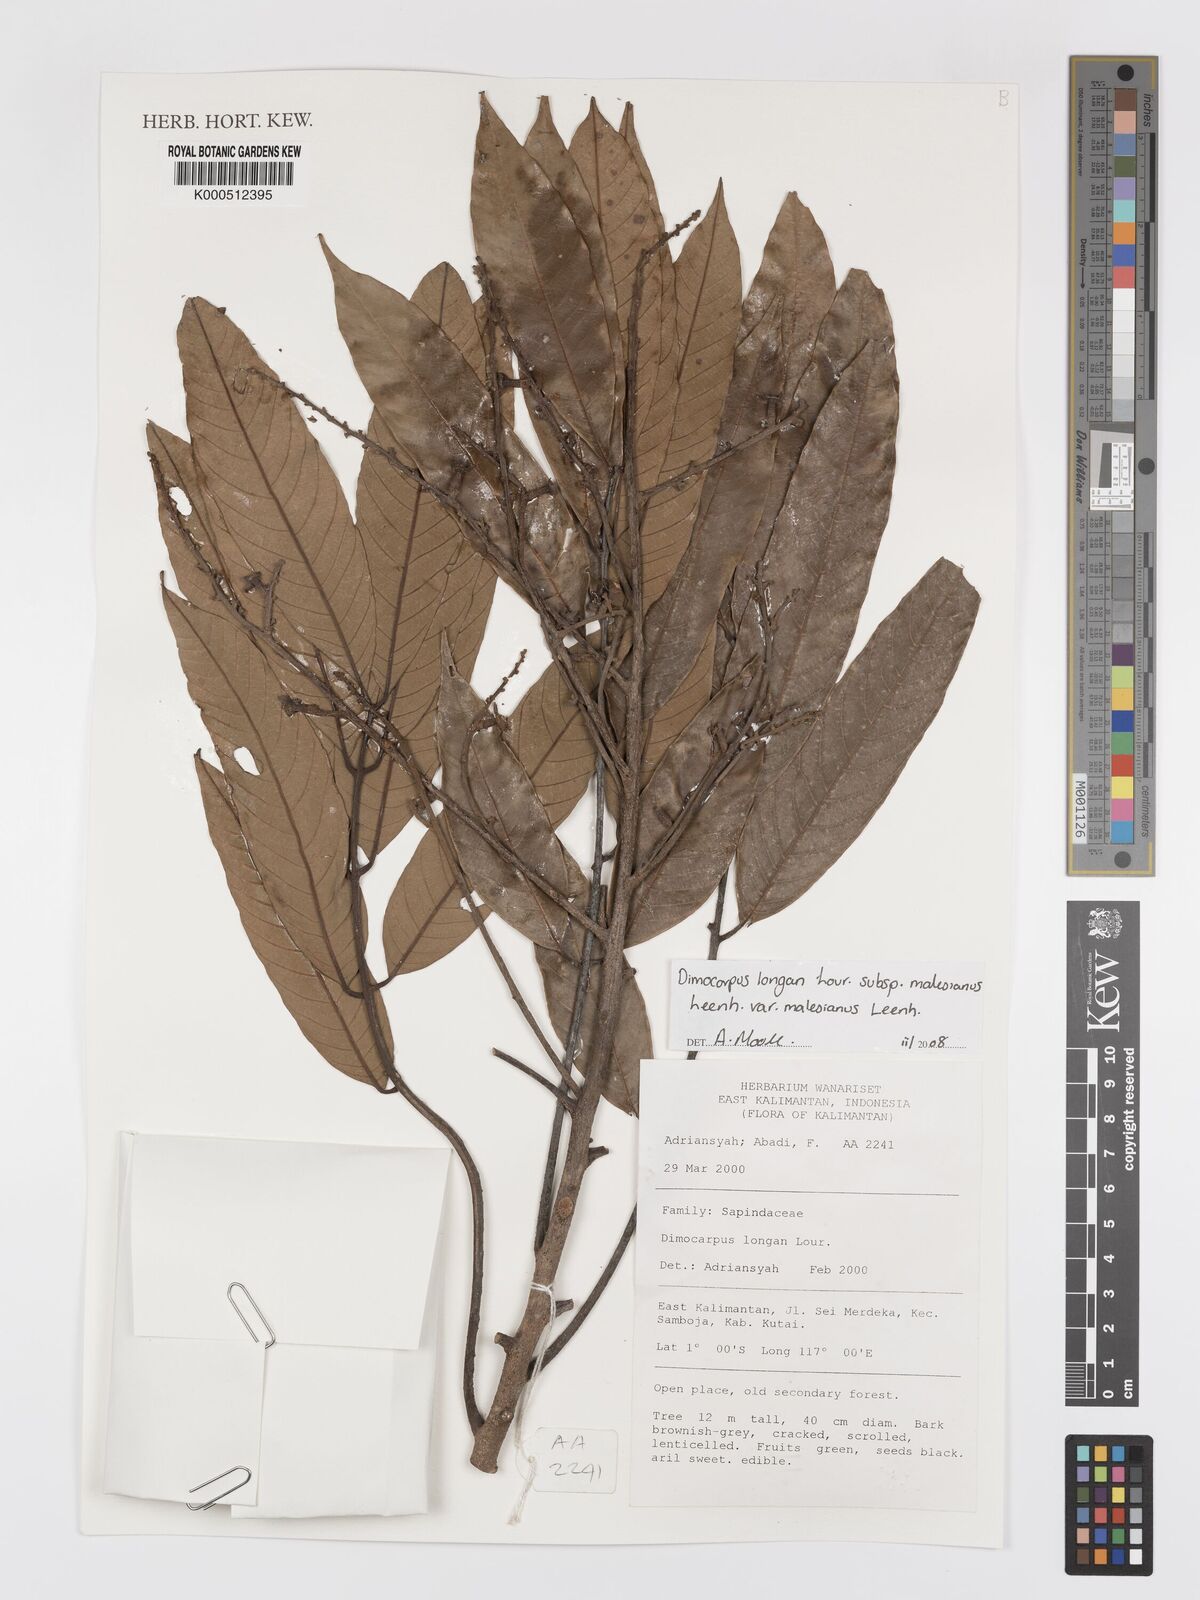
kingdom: Plantae
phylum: Tracheophyta
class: Magnoliopsida
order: Sapindales
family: Sapindaceae
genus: Dimocarpus
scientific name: Dimocarpus malesianus
